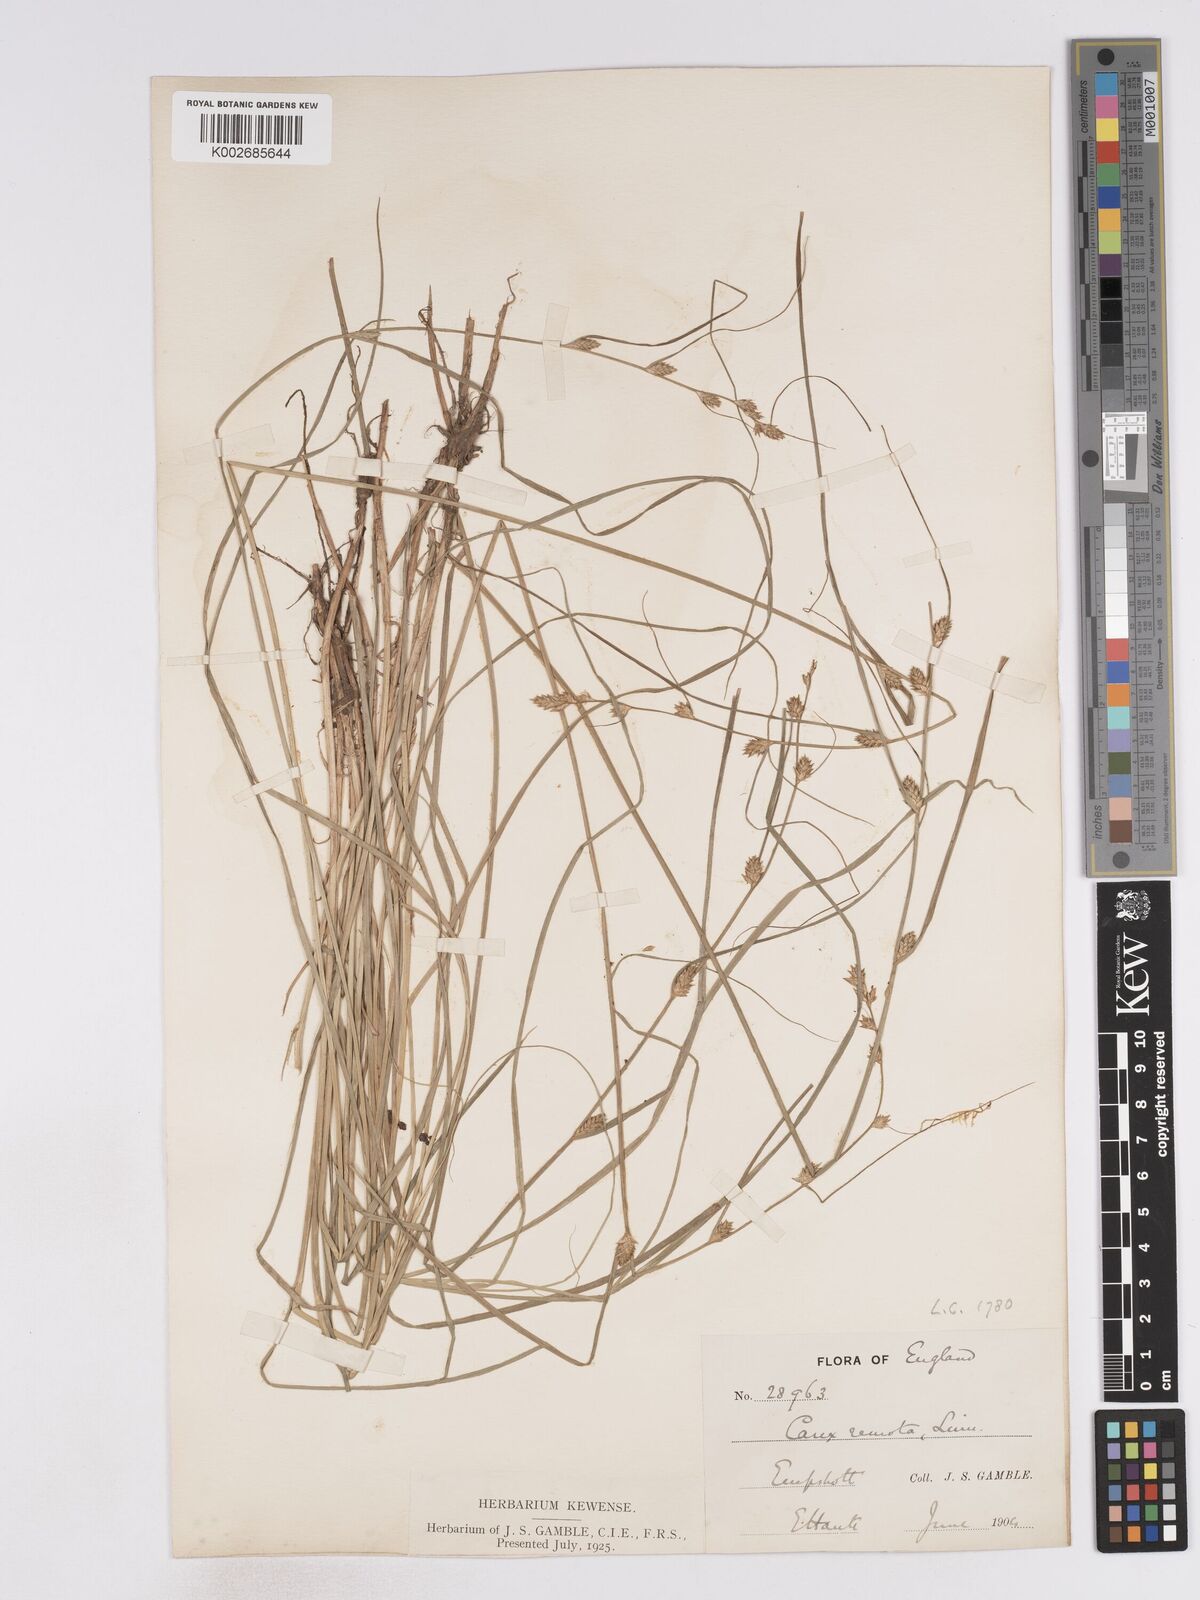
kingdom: Plantae
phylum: Tracheophyta
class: Liliopsida
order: Poales
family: Cyperaceae
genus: Carex
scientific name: Carex remota
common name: Remote sedge
